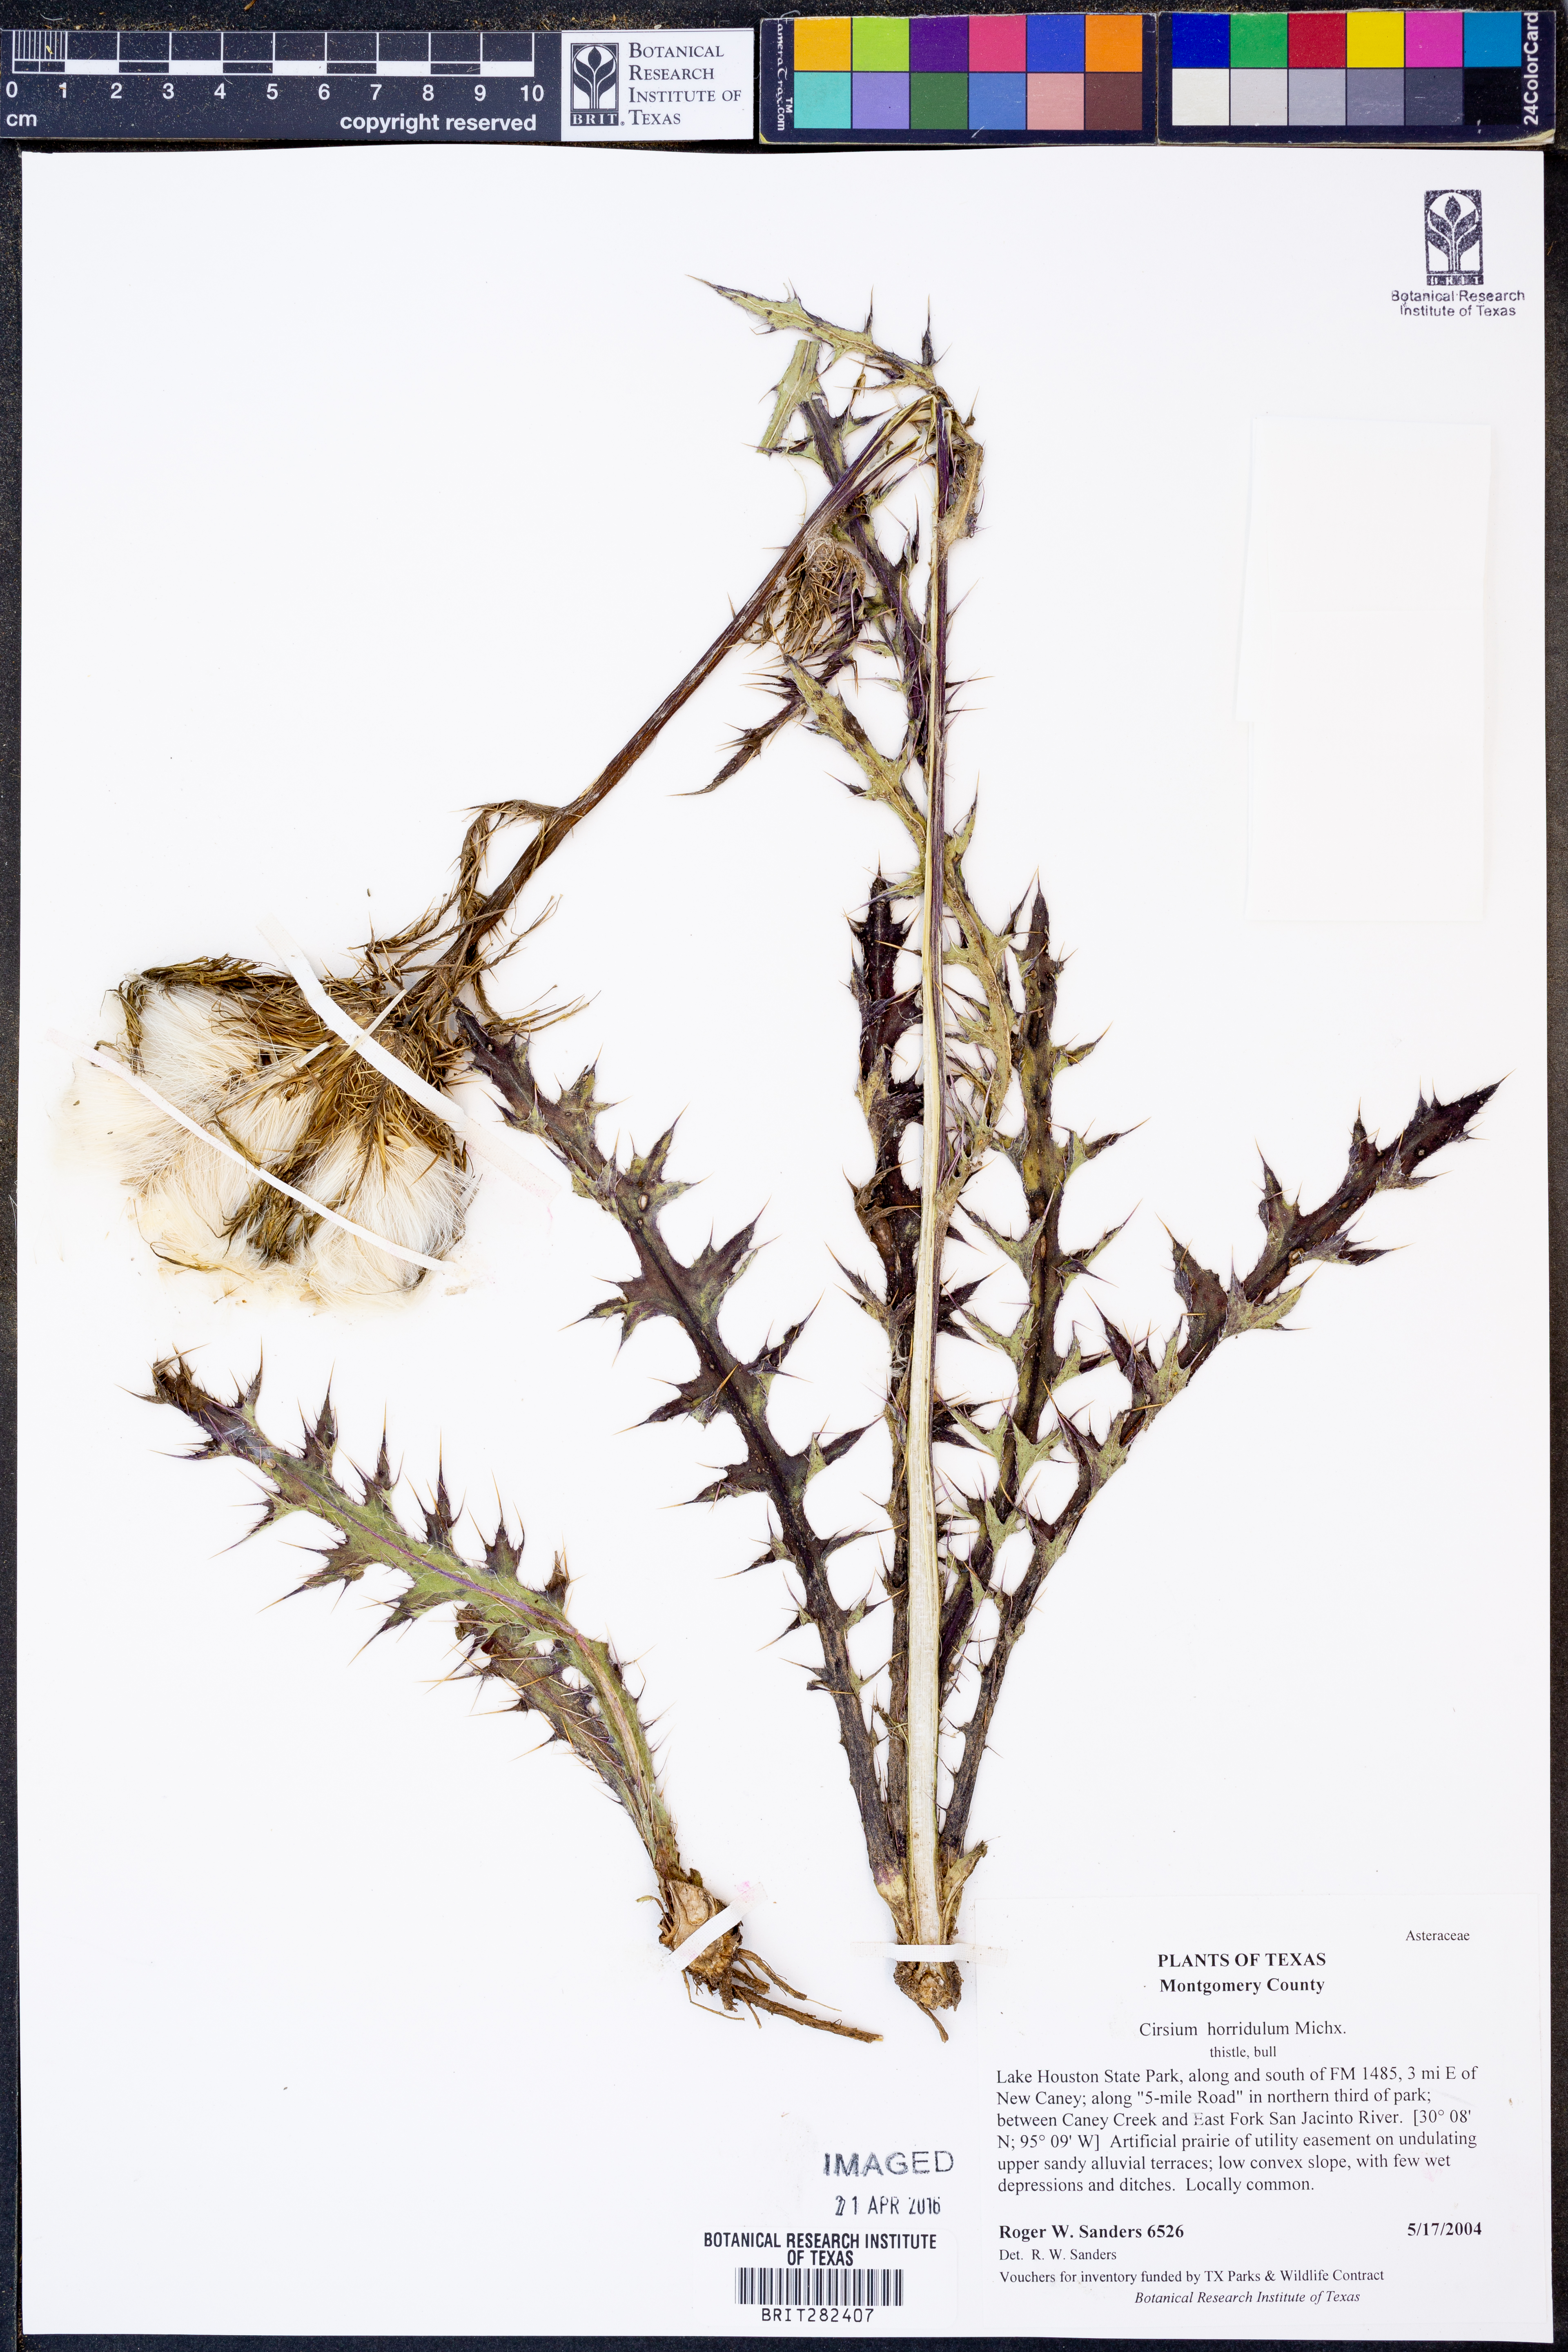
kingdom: Plantae
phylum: Tracheophyta
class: Magnoliopsida
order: Asterales
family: Asteraceae
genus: Cirsium
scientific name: Cirsium horridulum
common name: Bristly thistle
